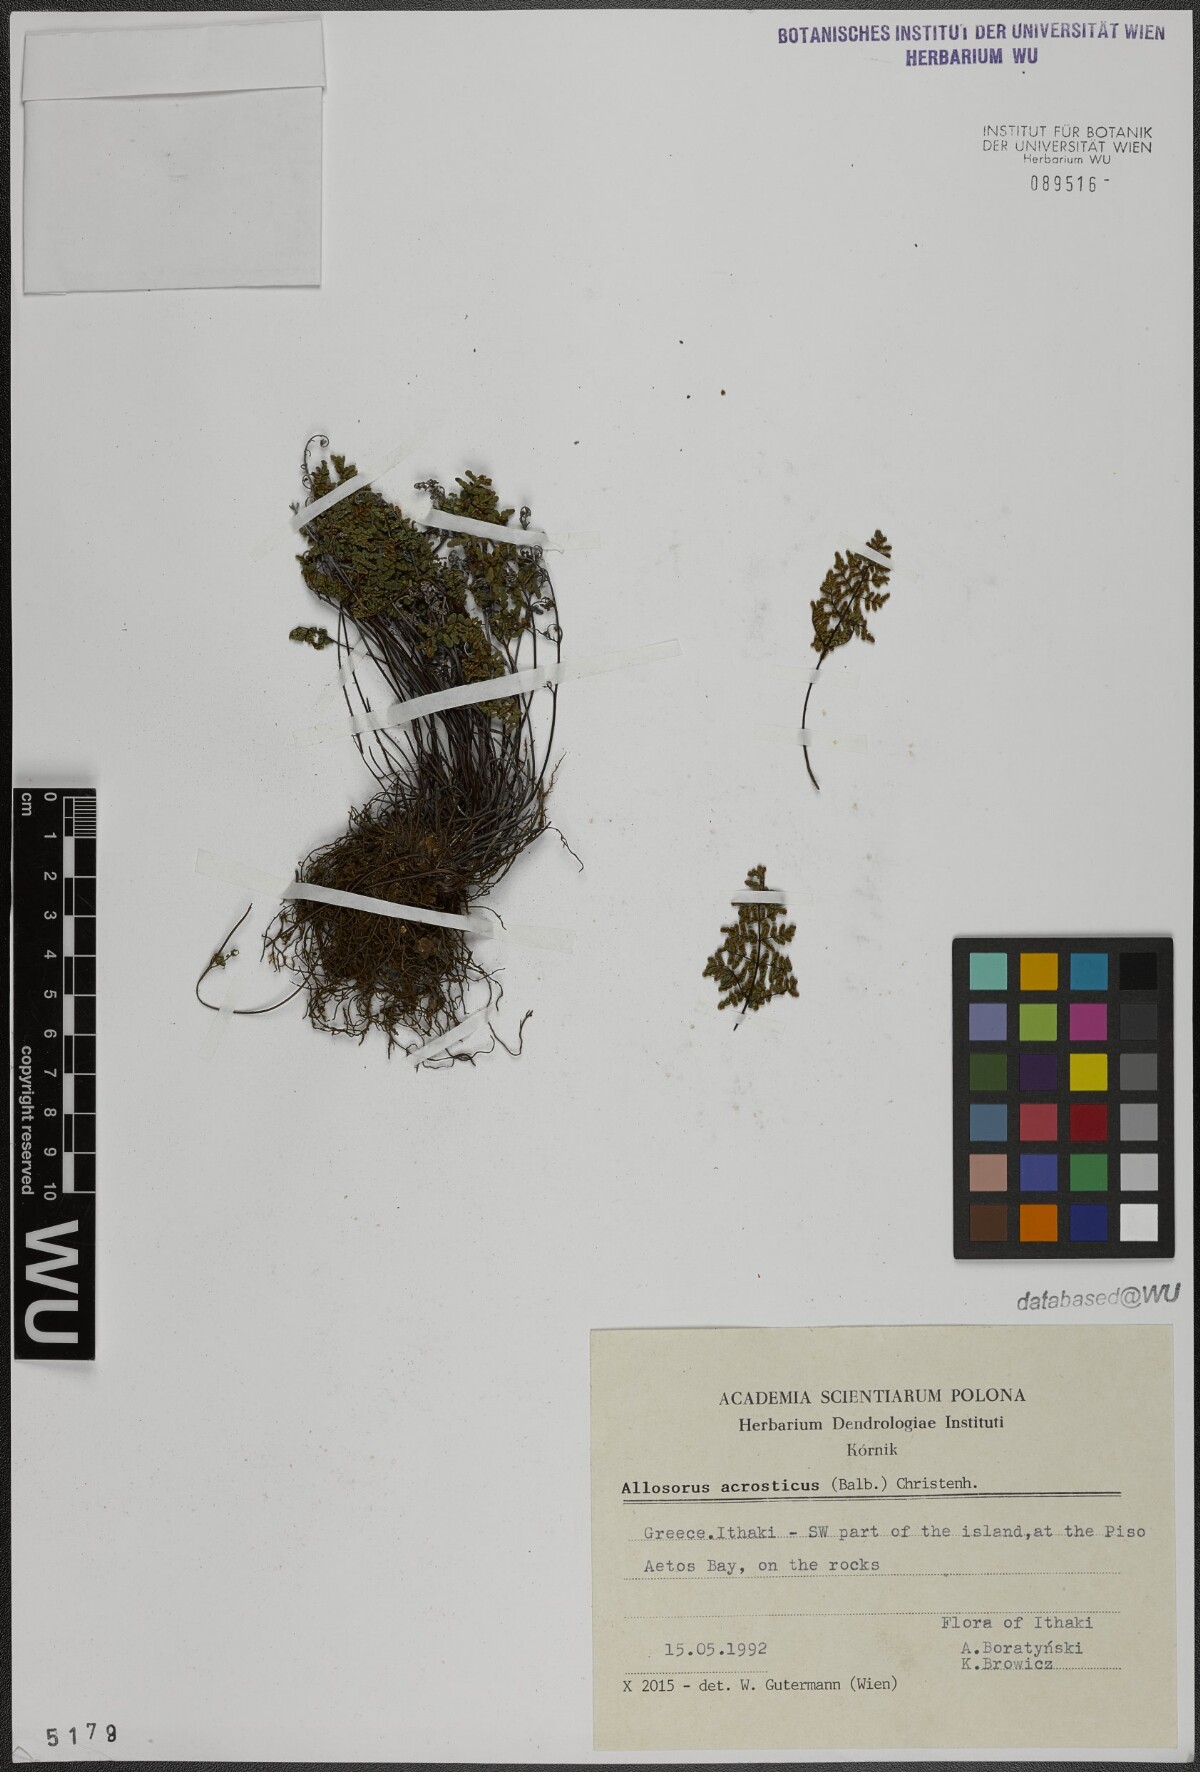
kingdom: Plantae
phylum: Tracheophyta
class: Polypodiopsida
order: Polypodiales
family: Pteridaceae
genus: Oeosporangium
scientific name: Oeosporangium pteridioides
